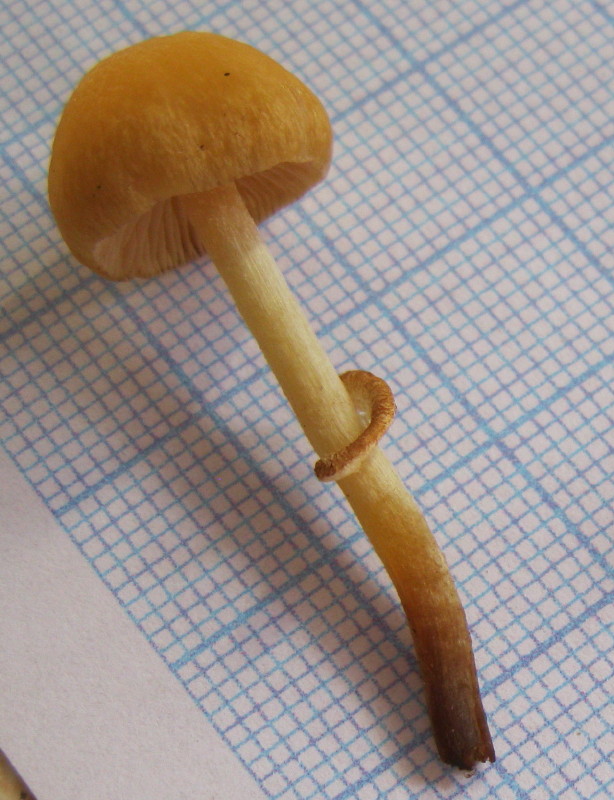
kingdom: Fungi
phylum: Basidiomycota
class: Agaricomycetes
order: Agaricales
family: Bolbitiaceae
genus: Pholiotina
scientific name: Pholiotina teneroides
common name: tosporet dansehat
